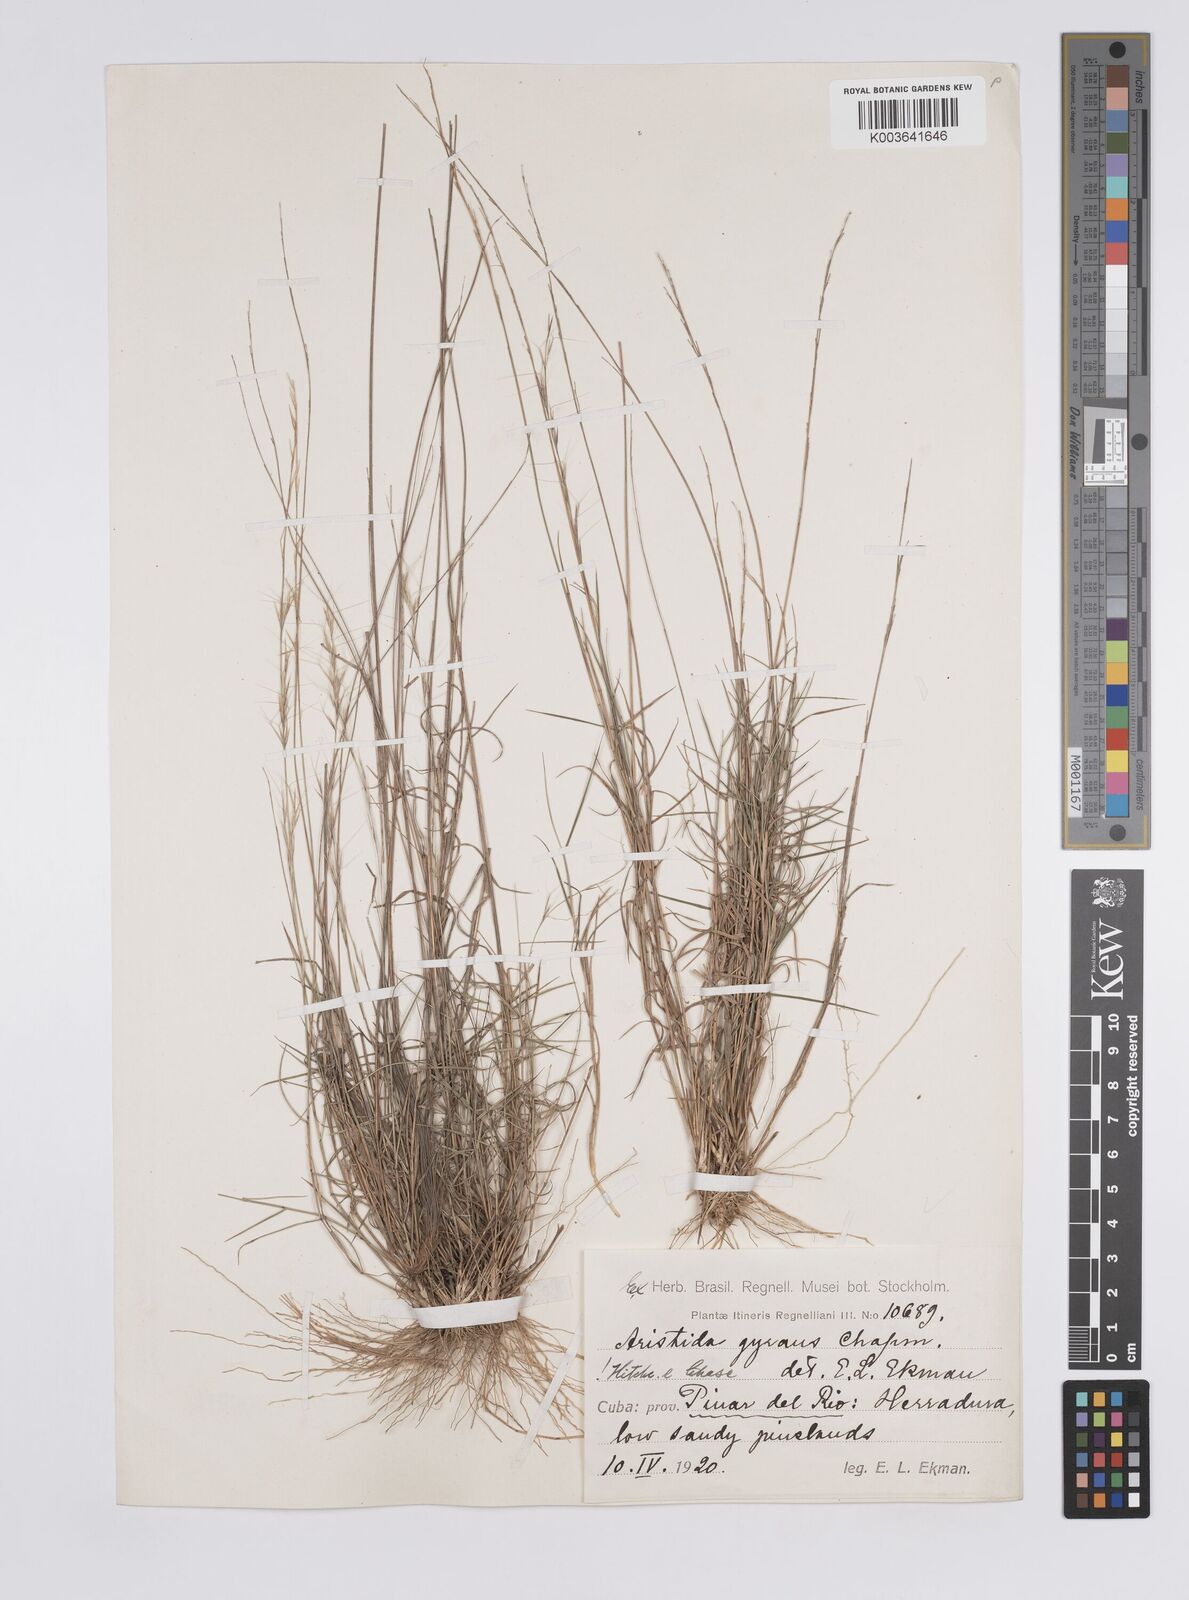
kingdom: Plantae
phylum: Tracheophyta
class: Liliopsida
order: Poales
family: Poaceae
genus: Aristida
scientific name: Aristida vilfifolia
